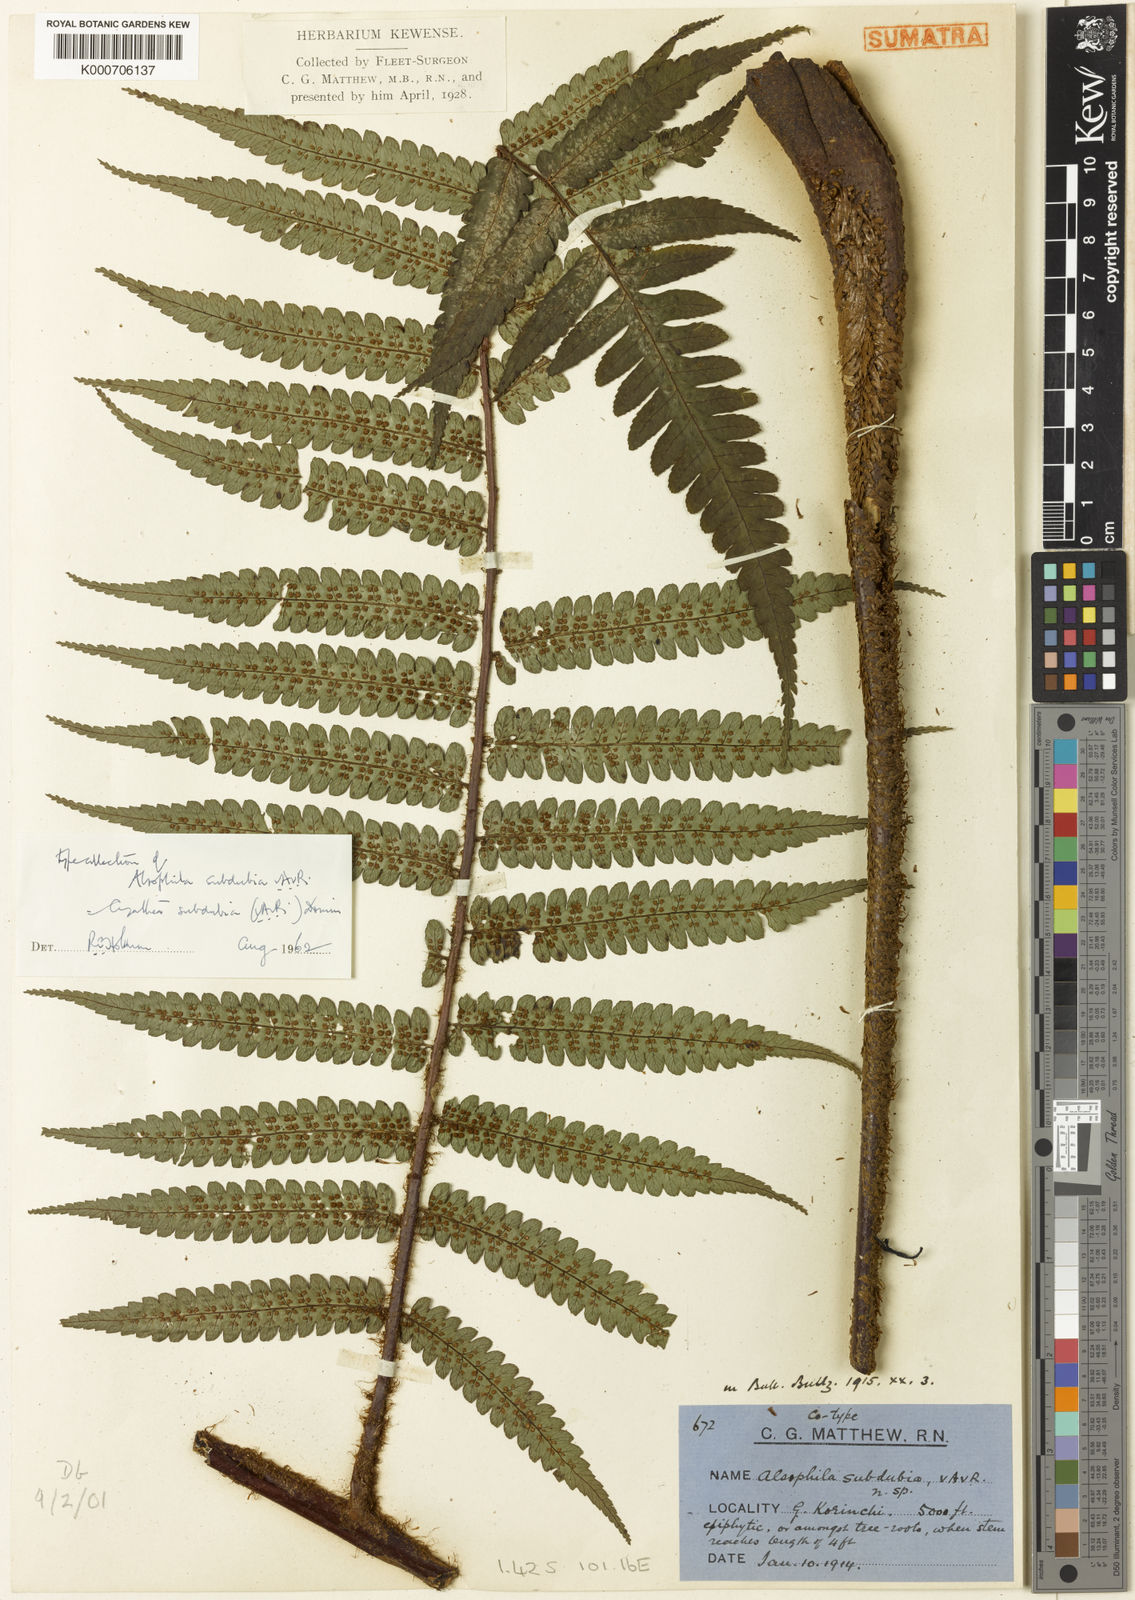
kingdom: Plantae
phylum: Tracheophyta
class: Polypodiopsida
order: Cyatheales
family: Cyatheaceae
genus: Gymnosphaera
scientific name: Gymnosphaera subdubia
